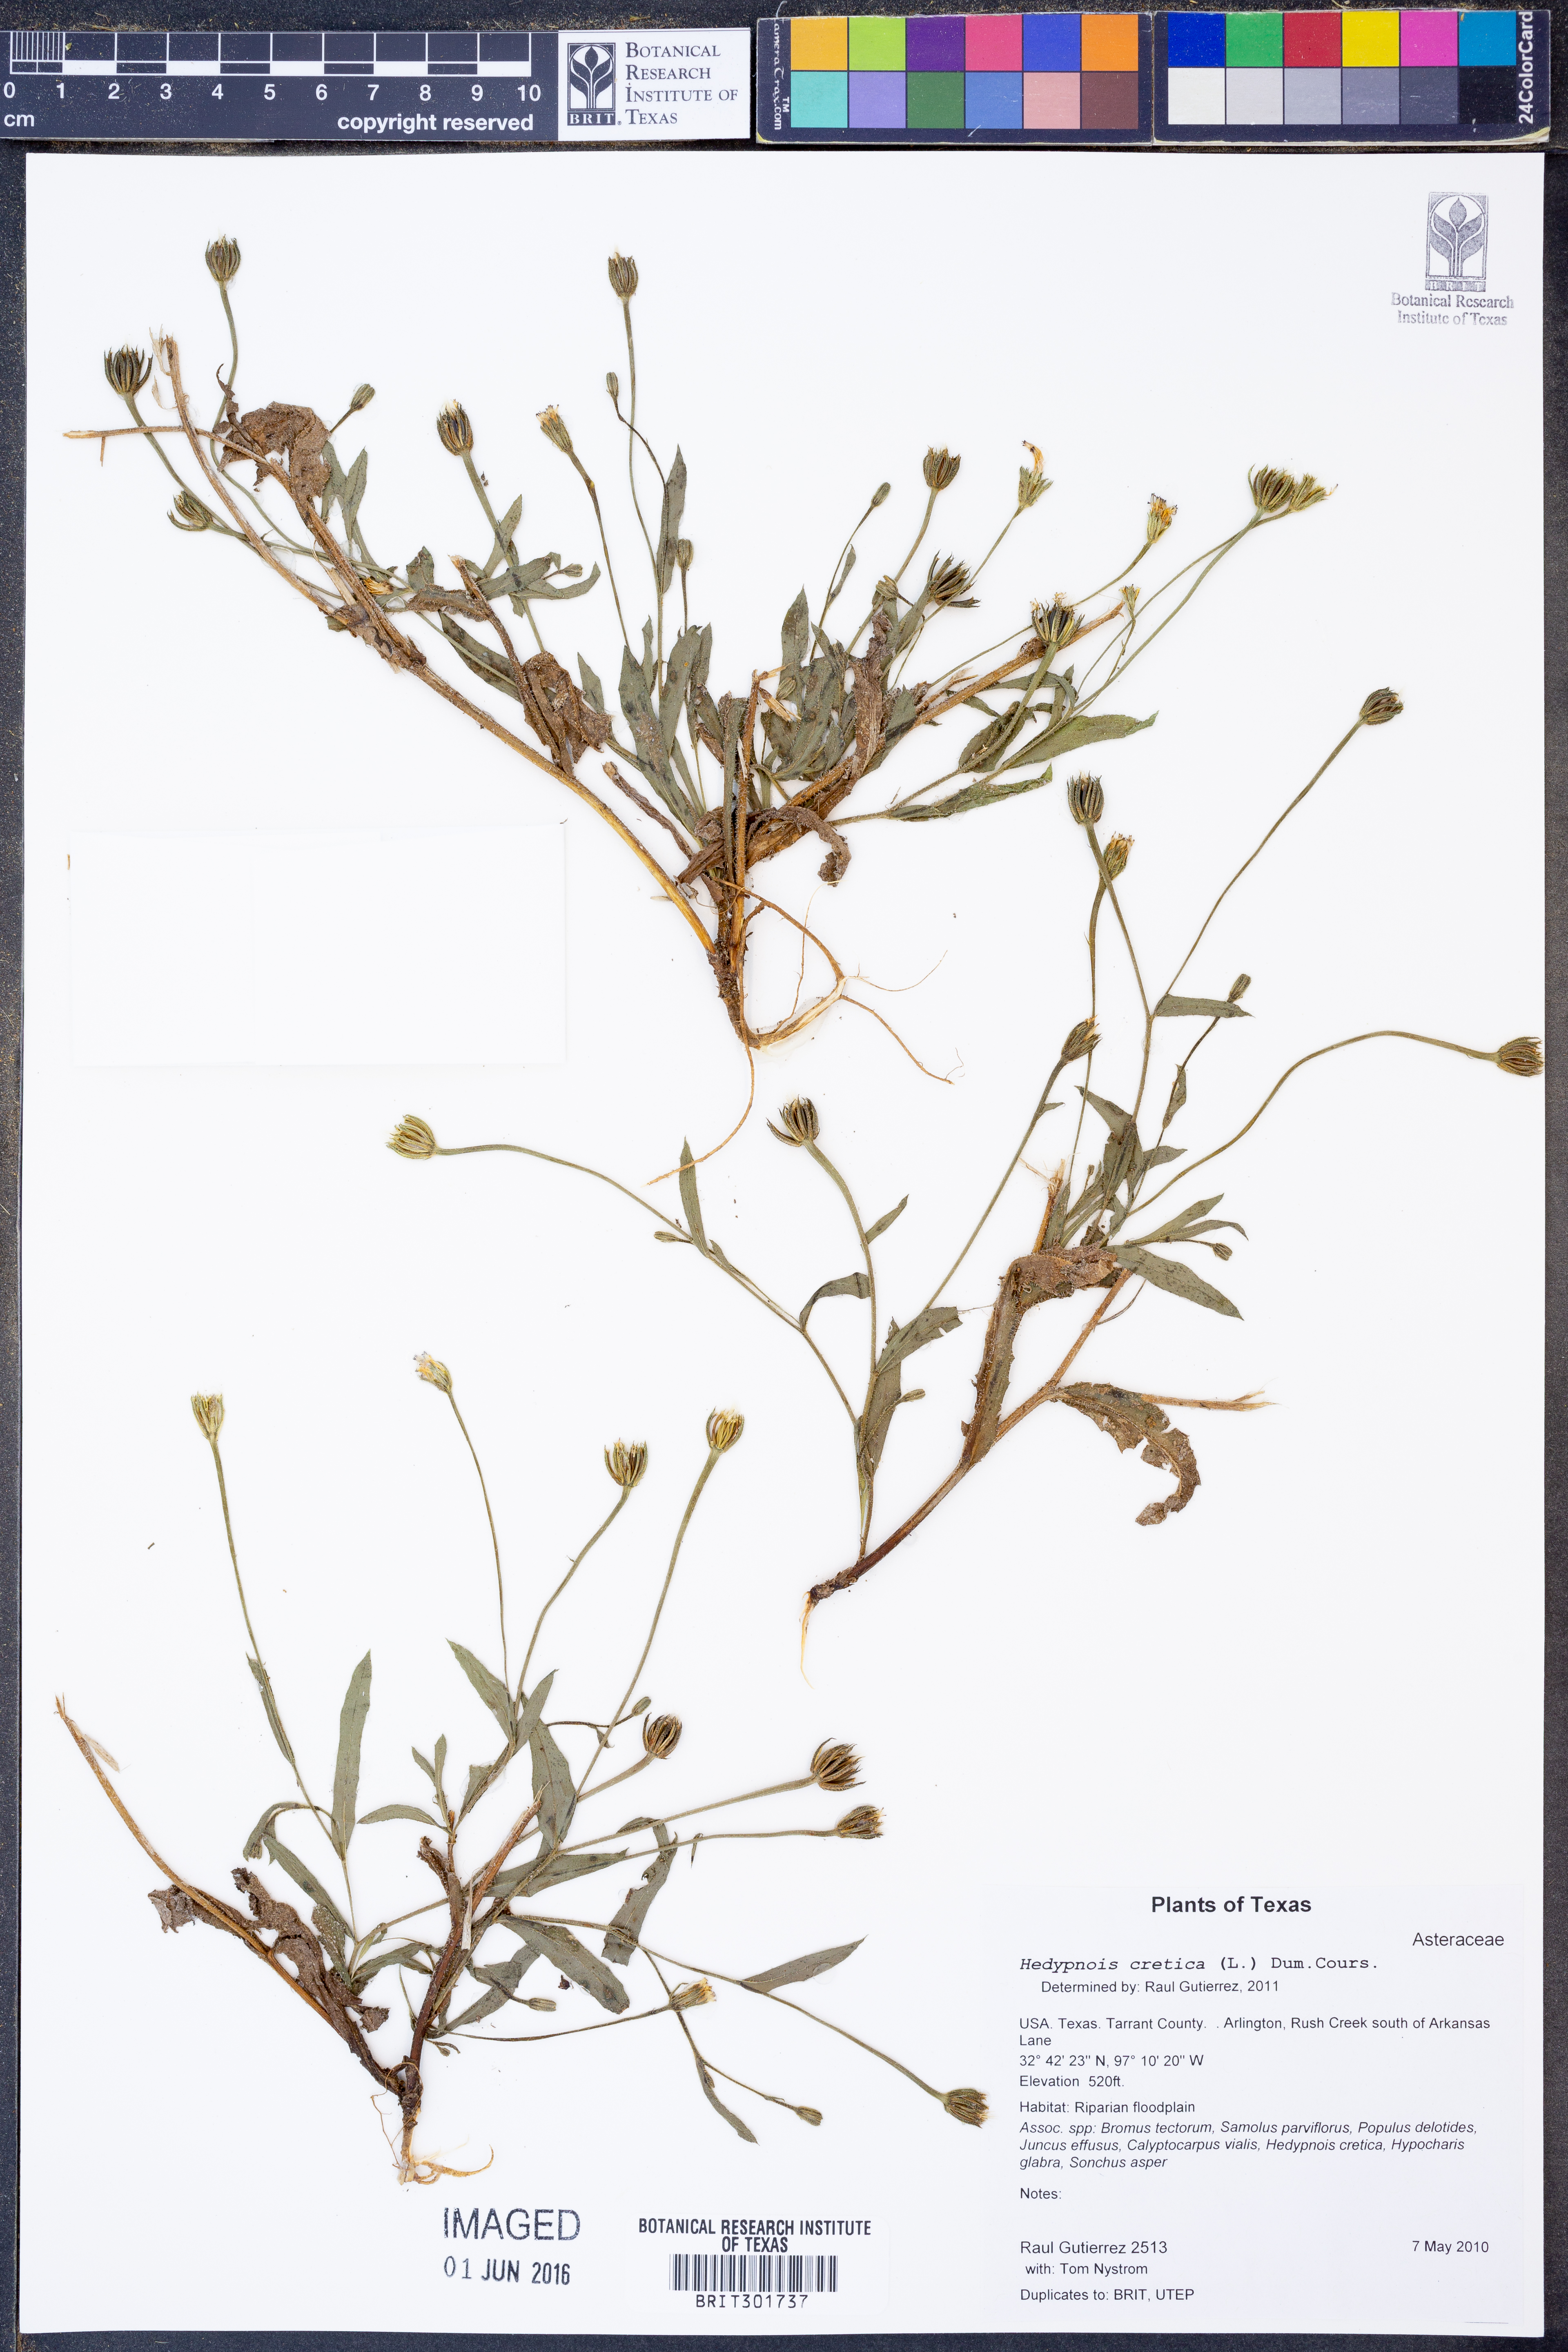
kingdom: Plantae
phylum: Tracheophyta
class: Magnoliopsida
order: Asterales
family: Asteraceae
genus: Hedypnois
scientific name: Hedypnois cretica
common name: Scaly hawkbit
